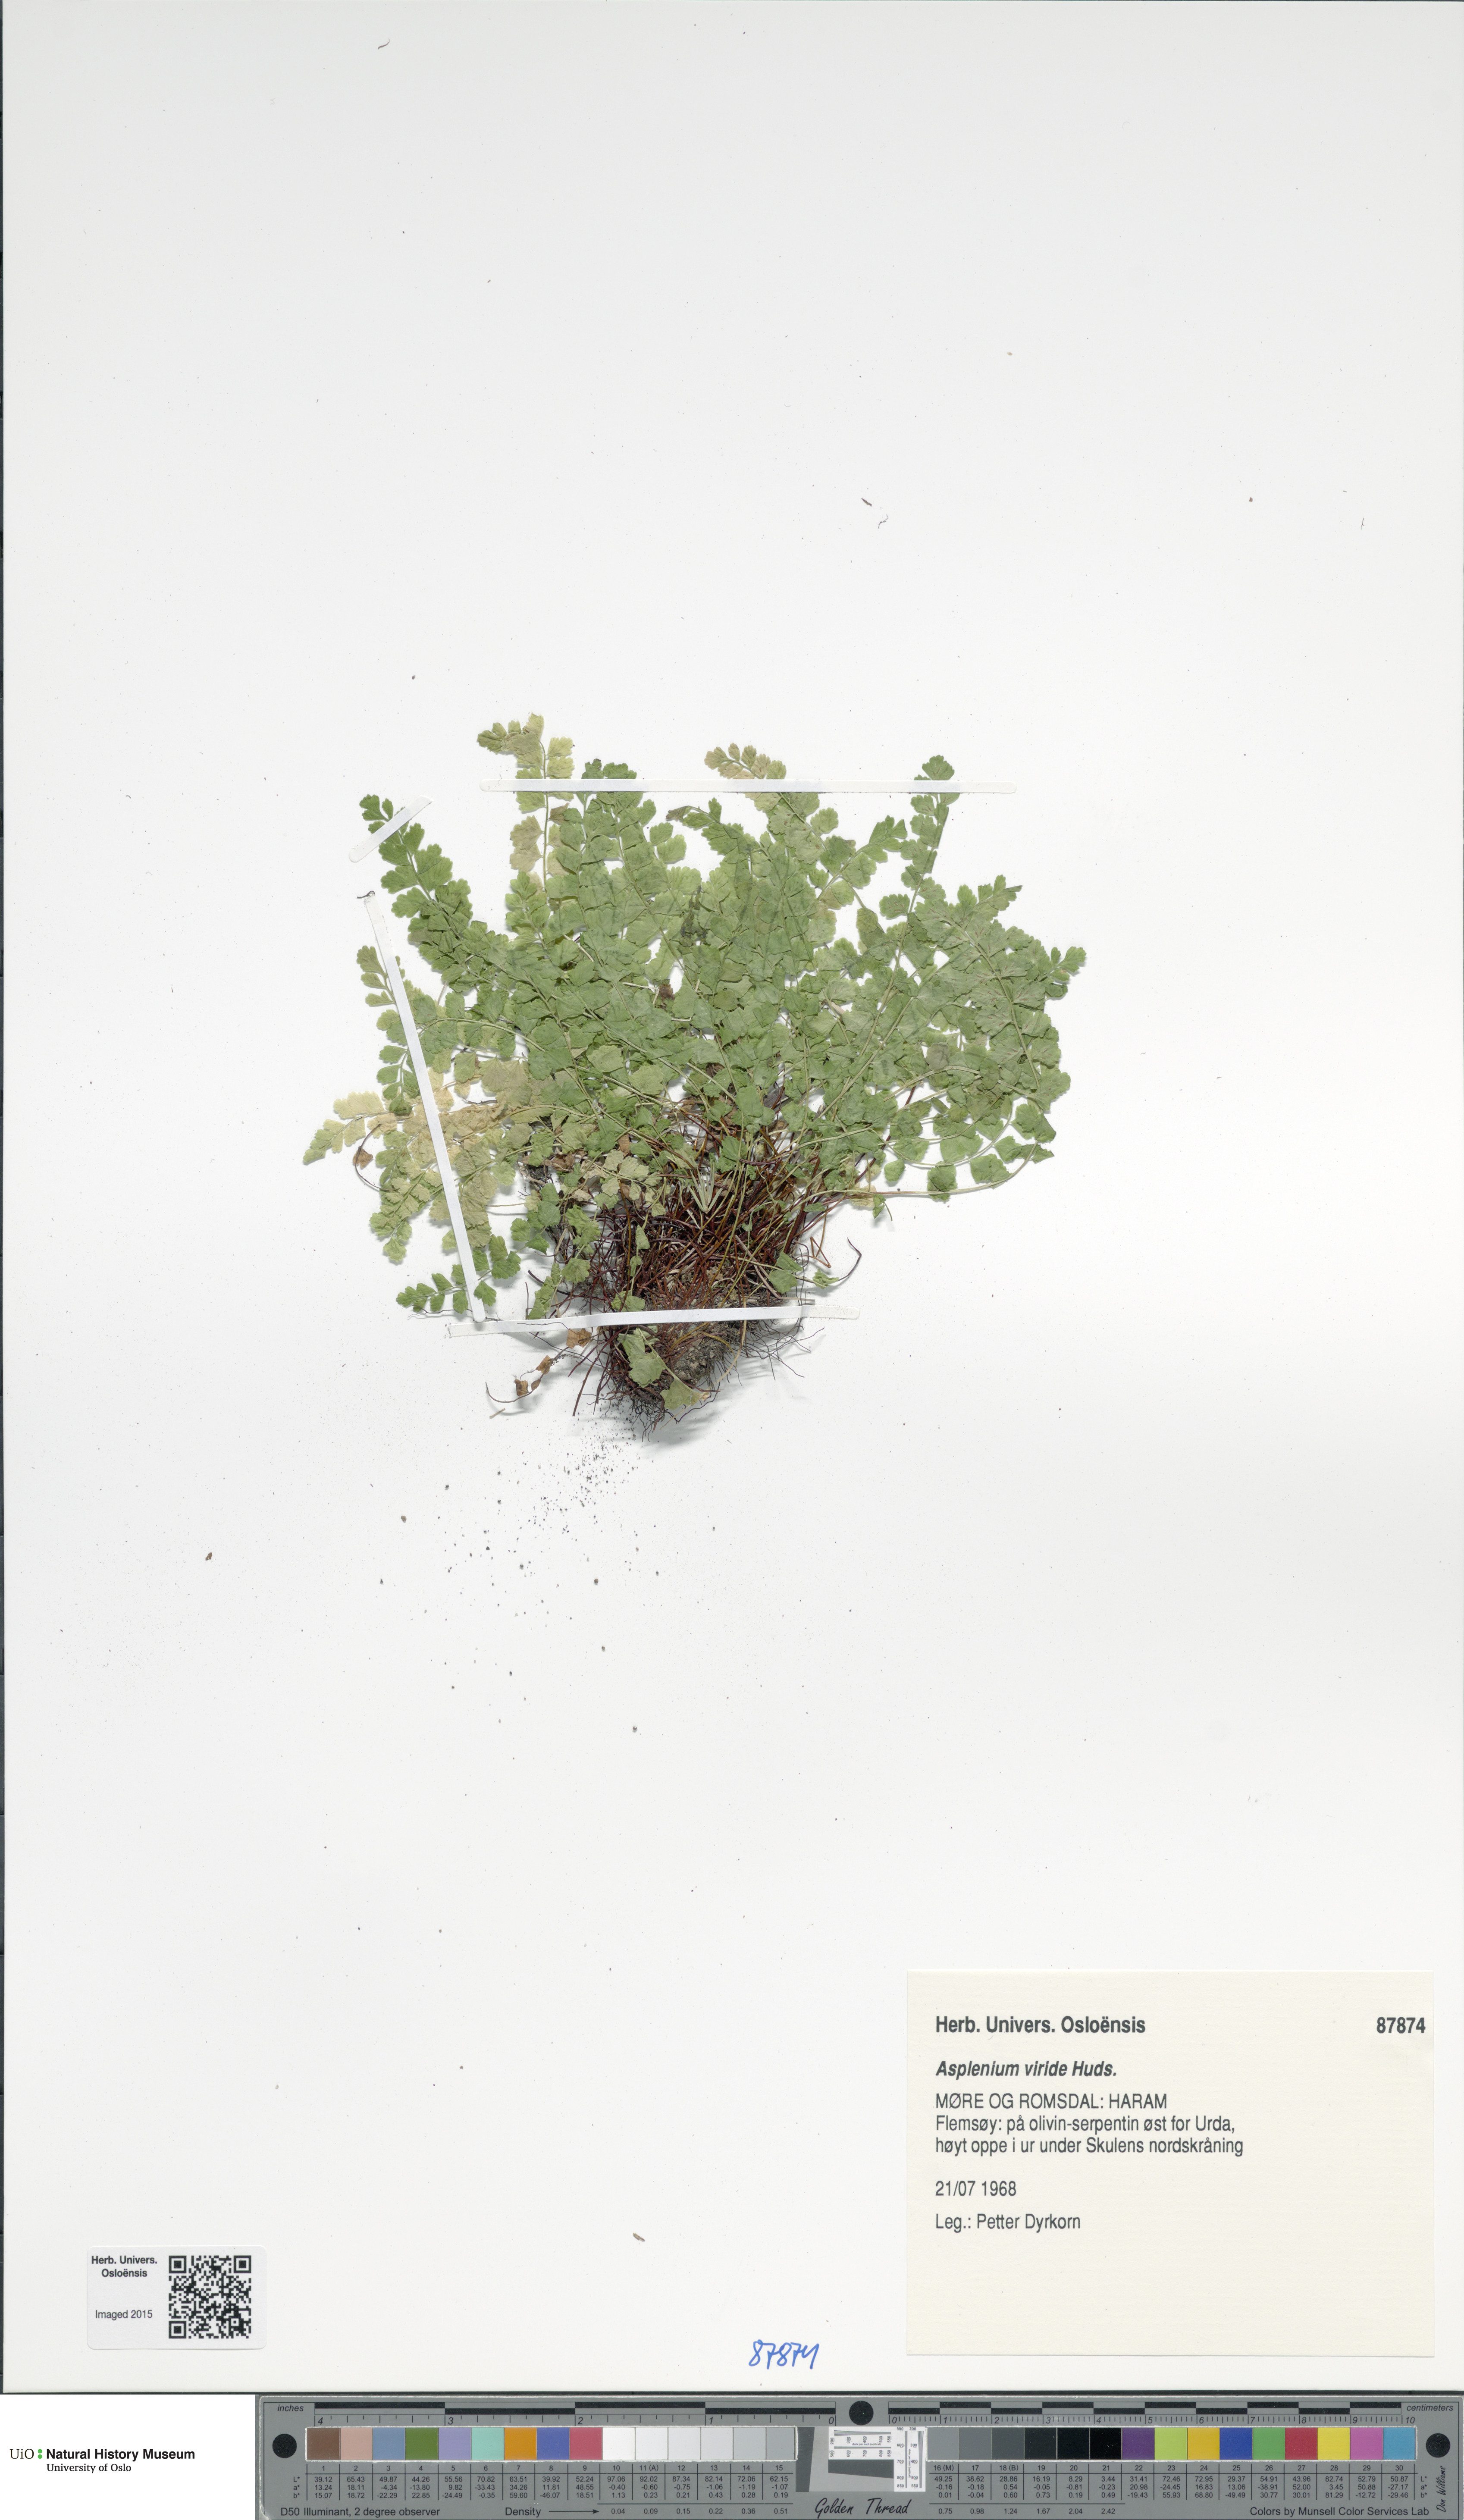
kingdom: Plantae
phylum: Tracheophyta
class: Polypodiopsida
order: Polypodiales
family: Aspleniaceae
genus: Asplenium
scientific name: Asplenium viride
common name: Green spleenwort
